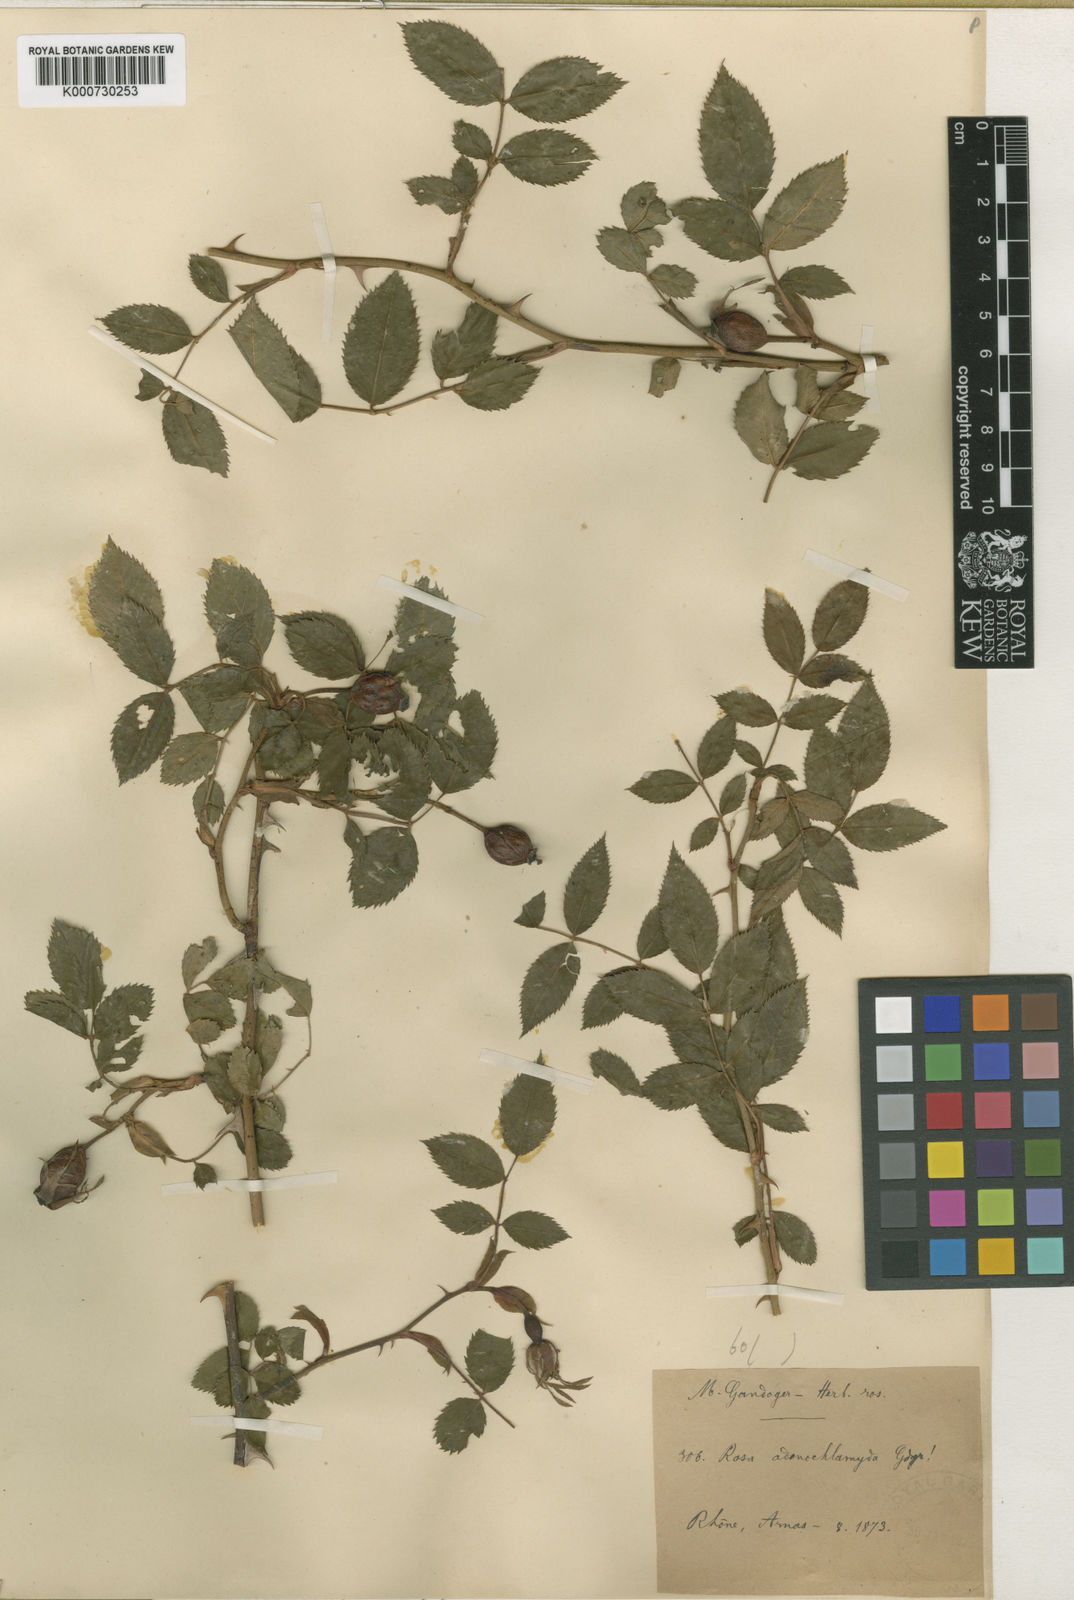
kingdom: Plantae
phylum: Tracheophyta
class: Magnoliopsida
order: Rosales
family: Rosaceae
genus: Rosa
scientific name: Rosa canina
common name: Dog rose
